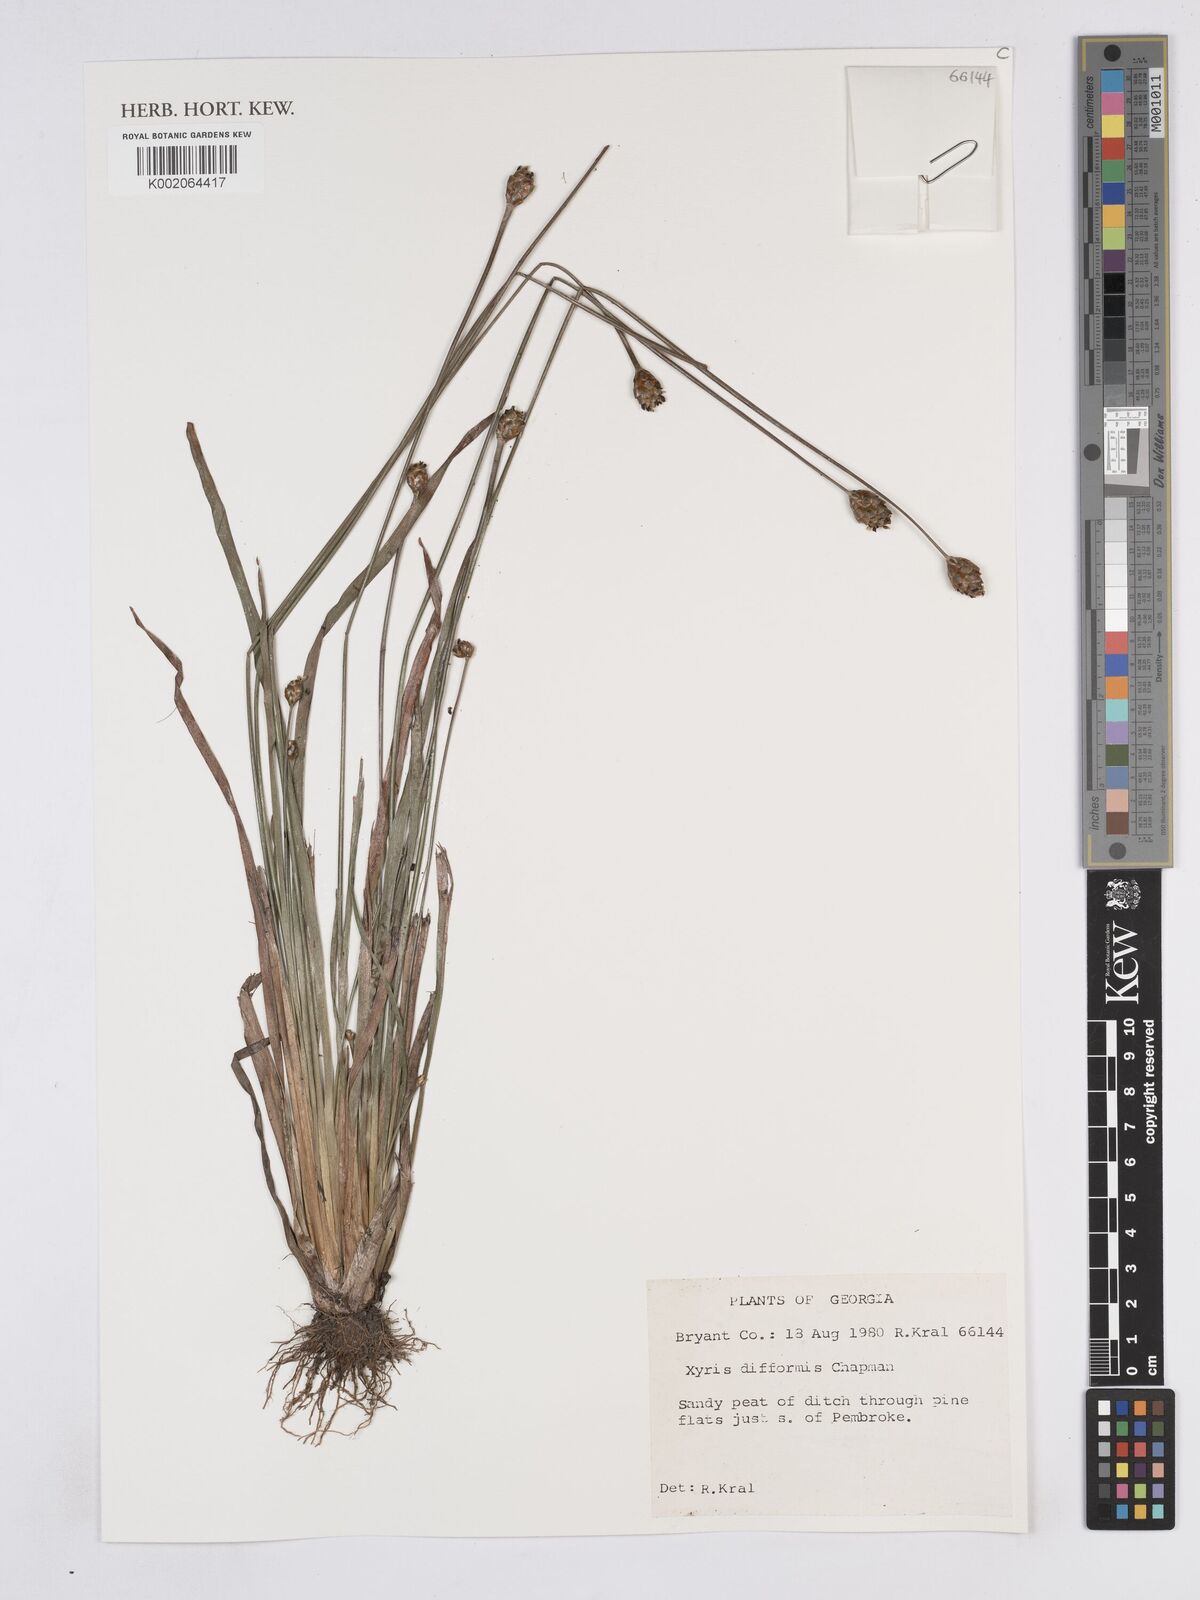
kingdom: Plantae
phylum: Tracheophyta
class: Liliopsida
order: Poales
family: Xyridaceae
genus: Xyris
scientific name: Xyris difformis
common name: Bog yellow-eyed-grass
